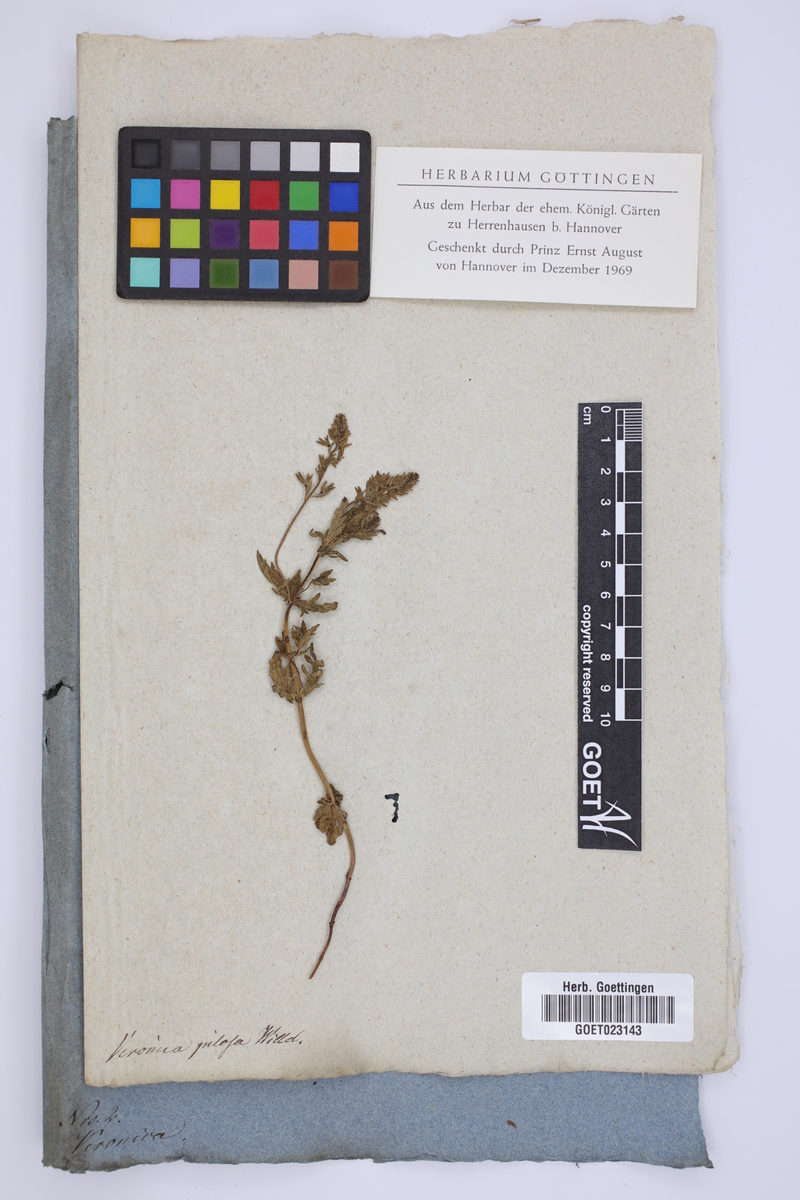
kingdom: Plantae
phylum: Tracheophyta
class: Magnoliopsida
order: Lamiales
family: Plantaginaceae
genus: Veronica
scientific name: Veronica prostrata
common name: Prostrate speedwell
